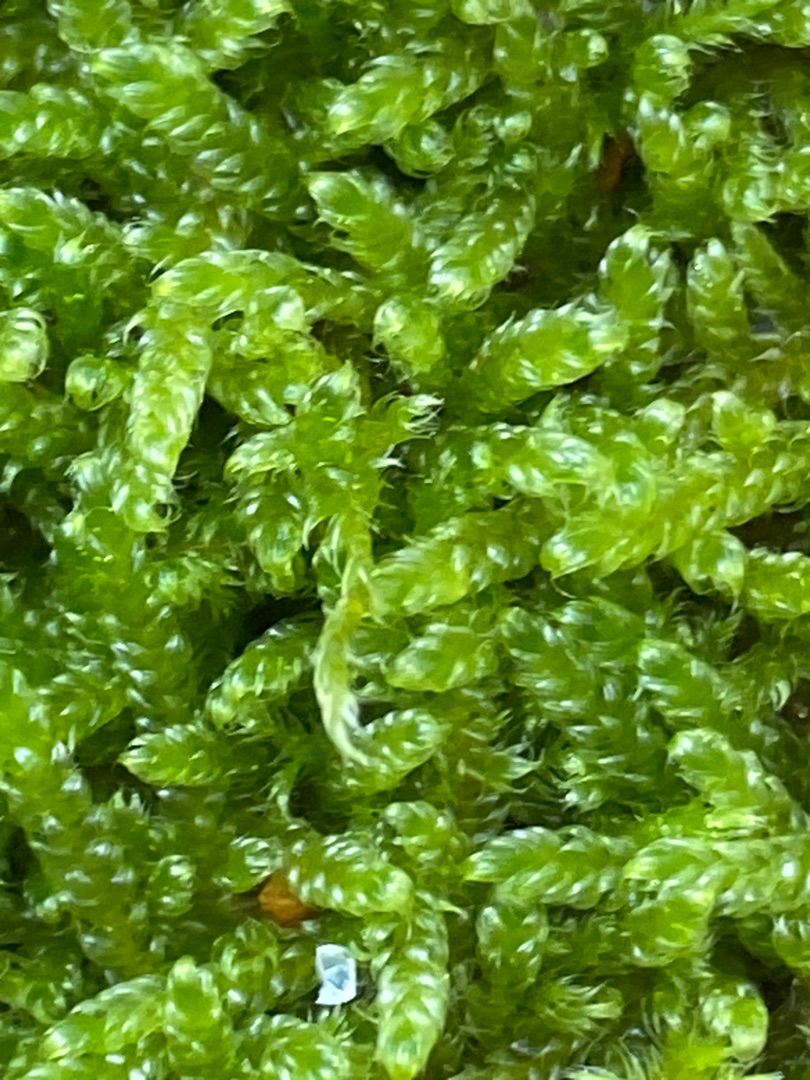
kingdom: Plantae
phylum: Bryophyta
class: Bryopsida
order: Hypnales
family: Hypnaceae
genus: Hypnum
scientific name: Hypnum cupressiforme
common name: Almindelig cypresmos
